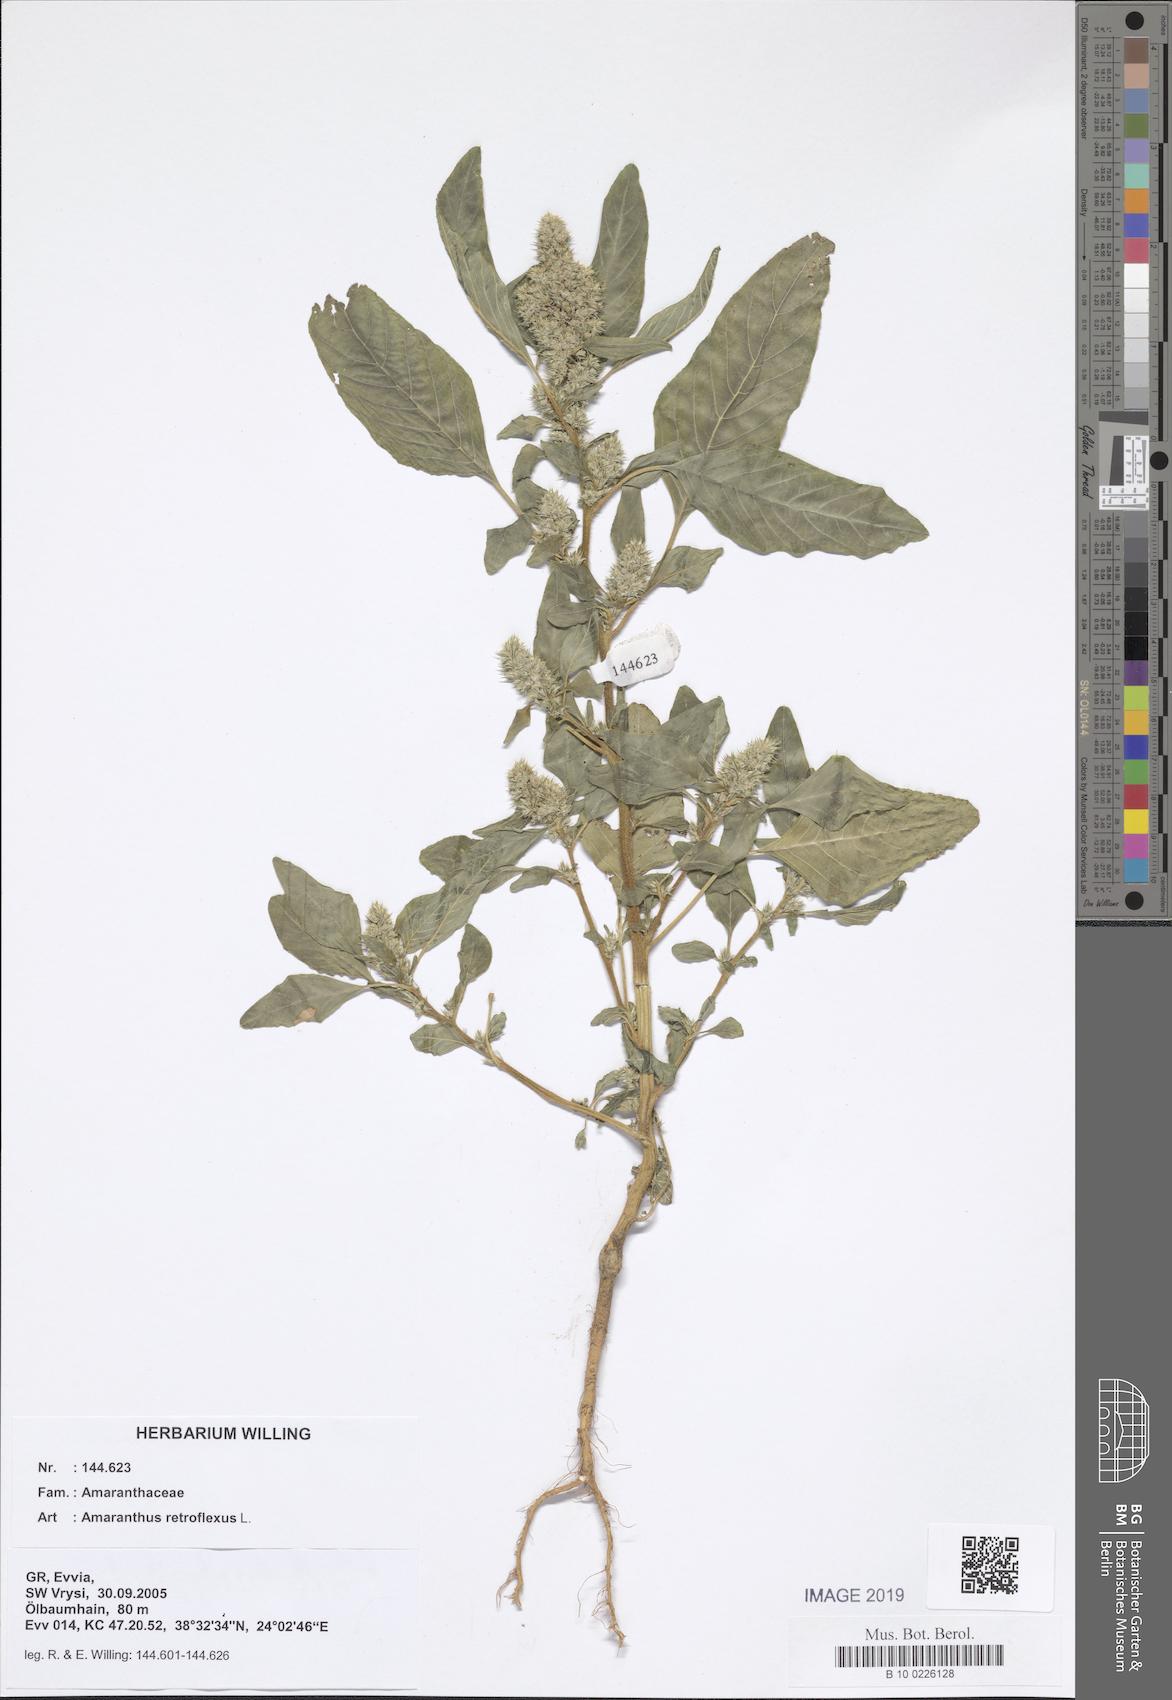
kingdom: Plantae
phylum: Tracheophyta
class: Magnoliopsida
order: Caryophyllales
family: Amaranthaceae
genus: Amaranthus
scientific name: Amaranthus retroflexus
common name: Redroot amaranth
